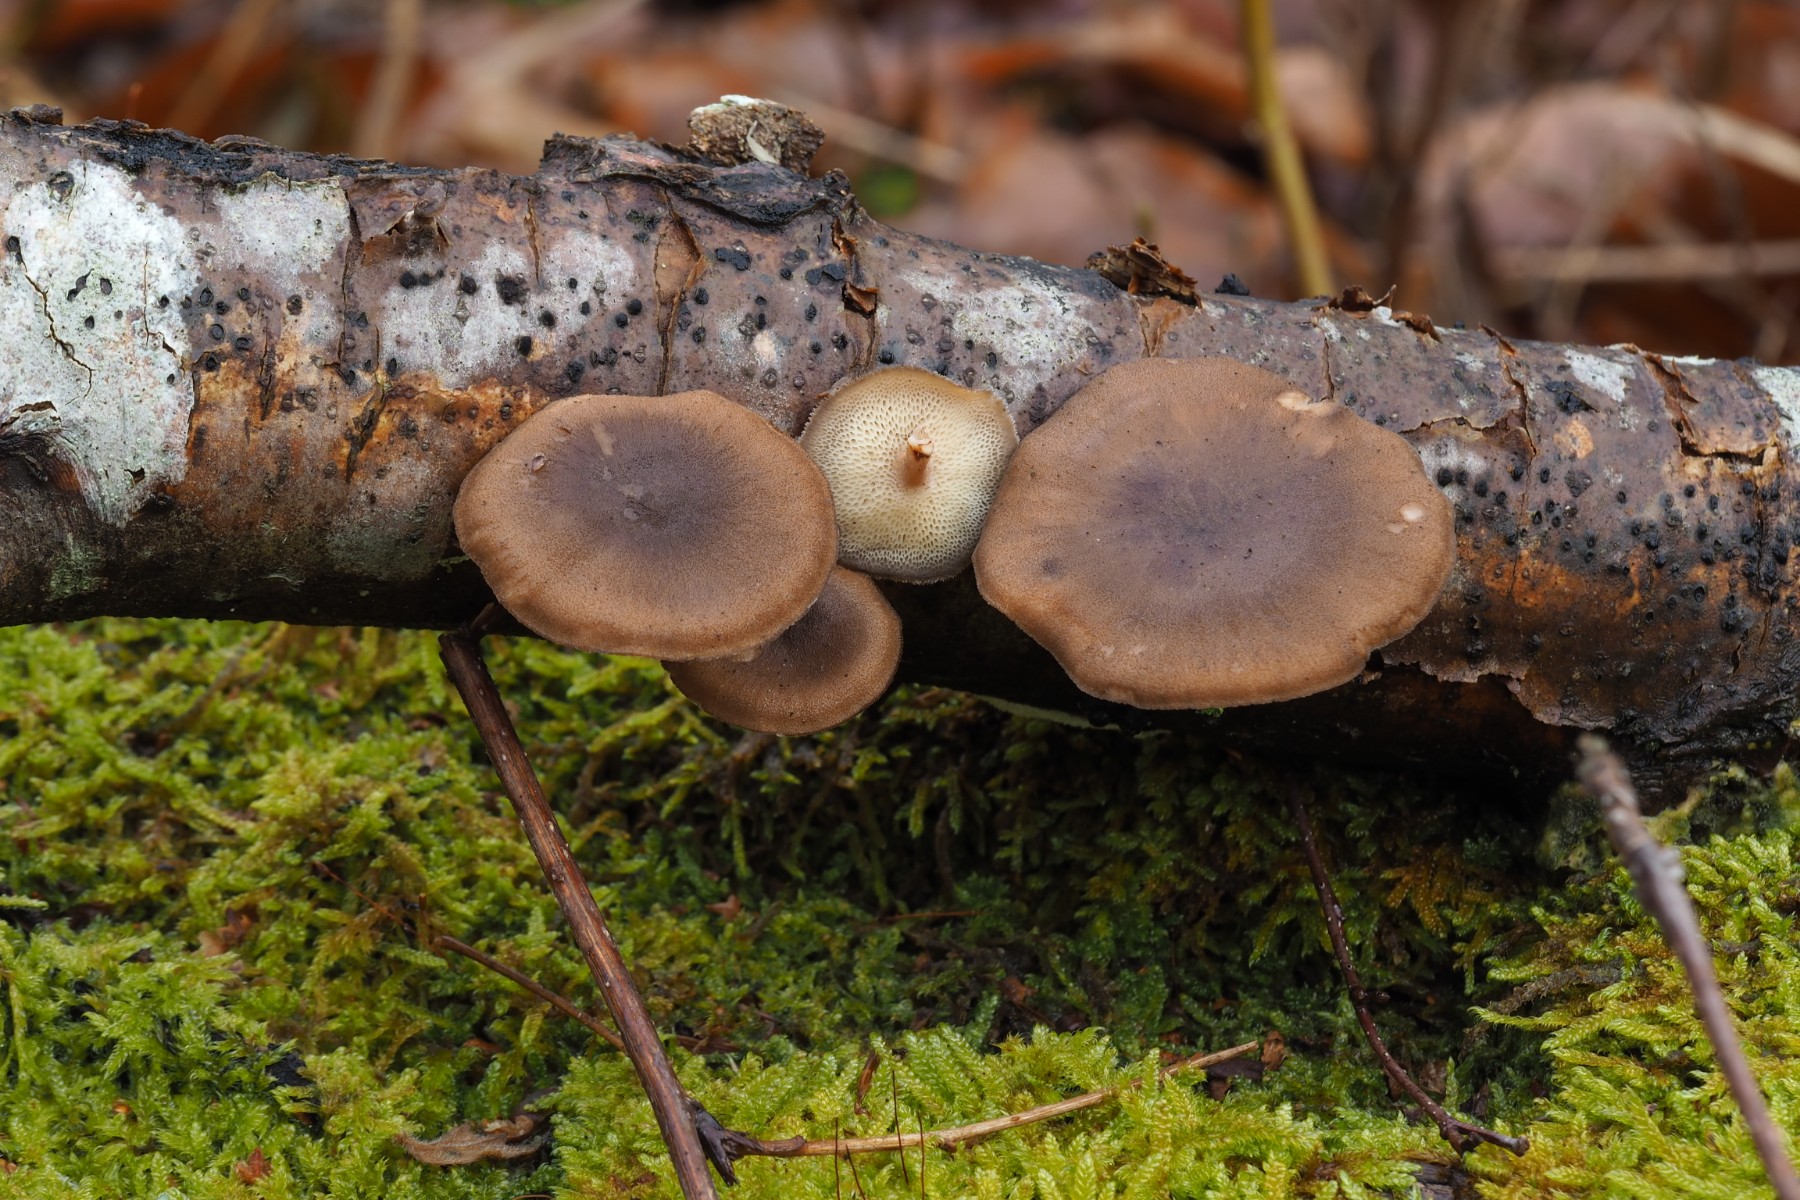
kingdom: Fungi
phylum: Basidiomycota
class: Agaricomycetes
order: Polyporales
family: Polyporaceae
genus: Lentinus
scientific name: Lentinus brumalis
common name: vinter-stilkporesvamp
